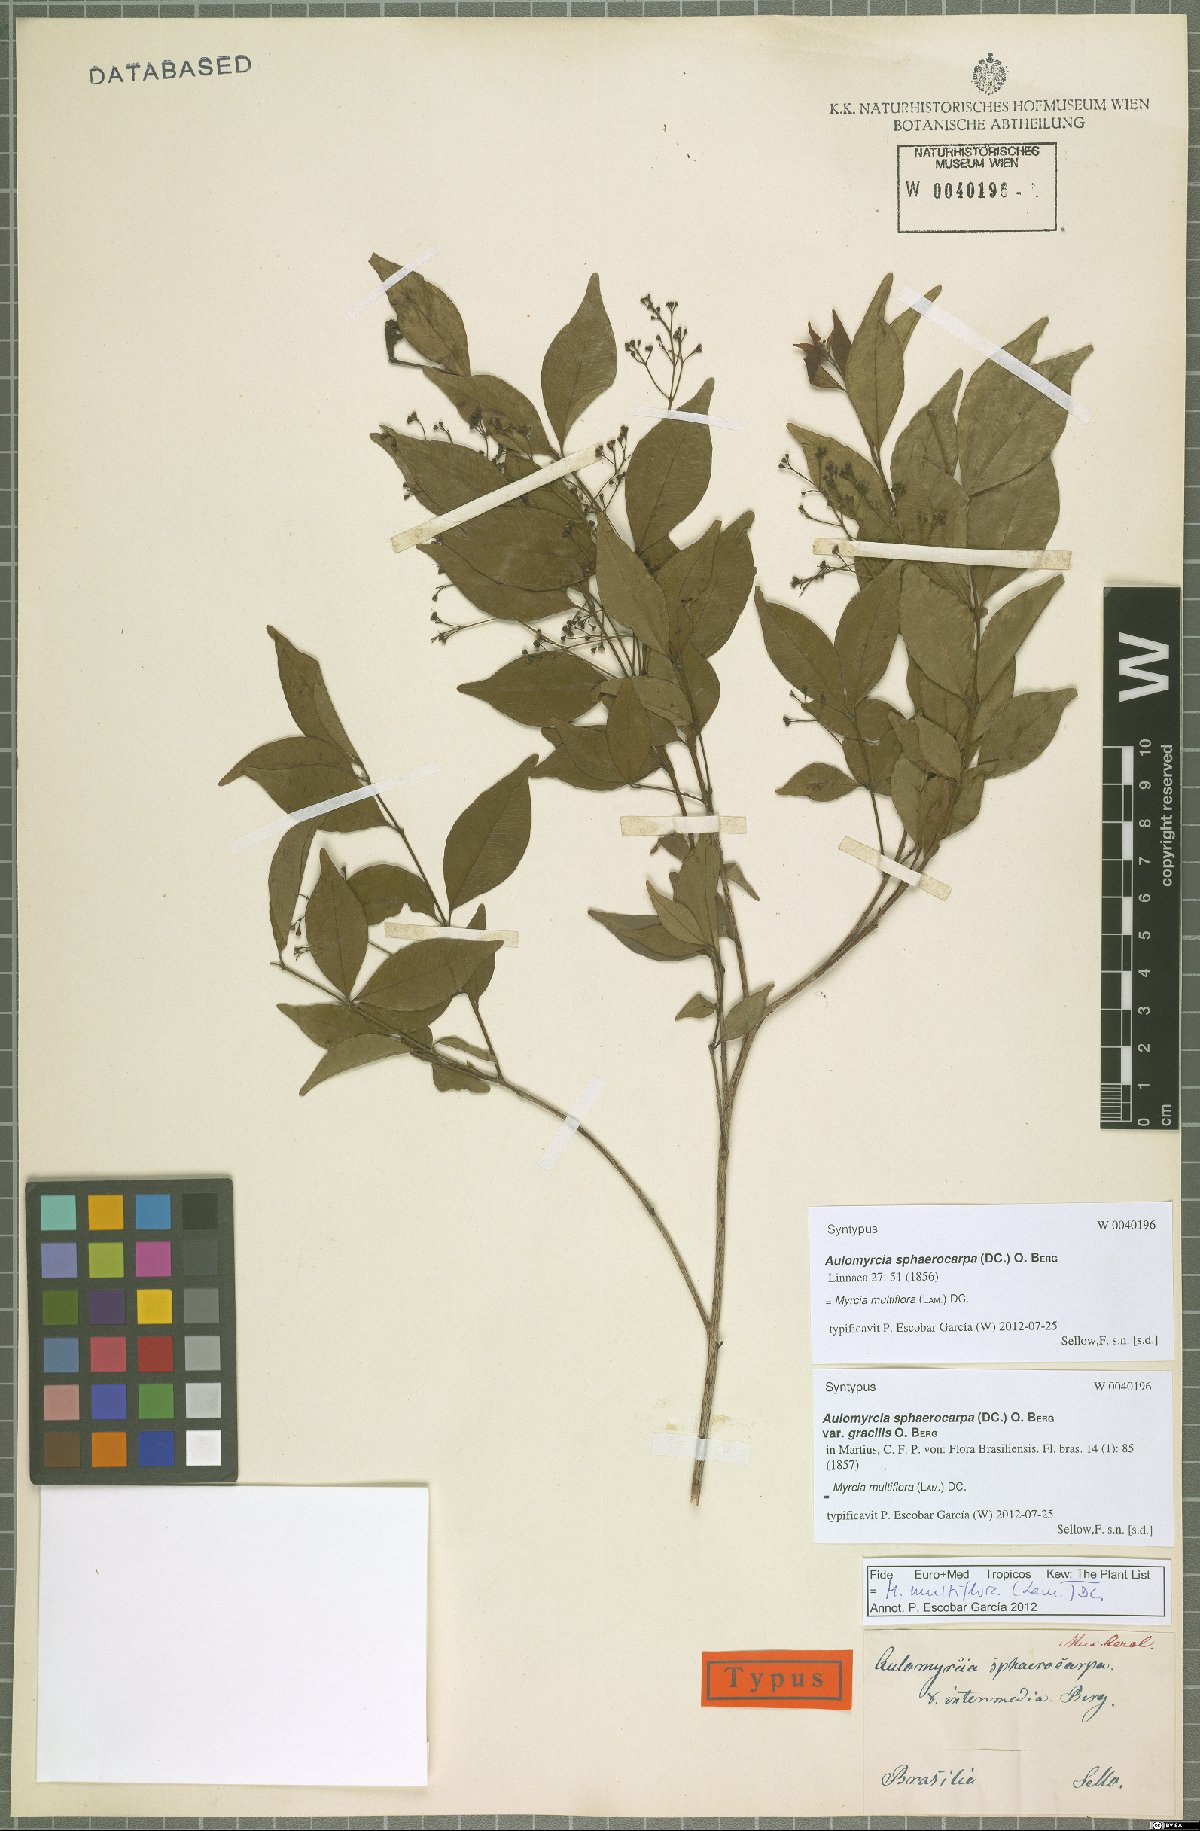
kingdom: Plantae
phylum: Tracheophyta
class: Magnoliopsida
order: Myrtales
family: Myrtaceae
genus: Myrcia
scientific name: Myrcia multiflora
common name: Pedra hume
